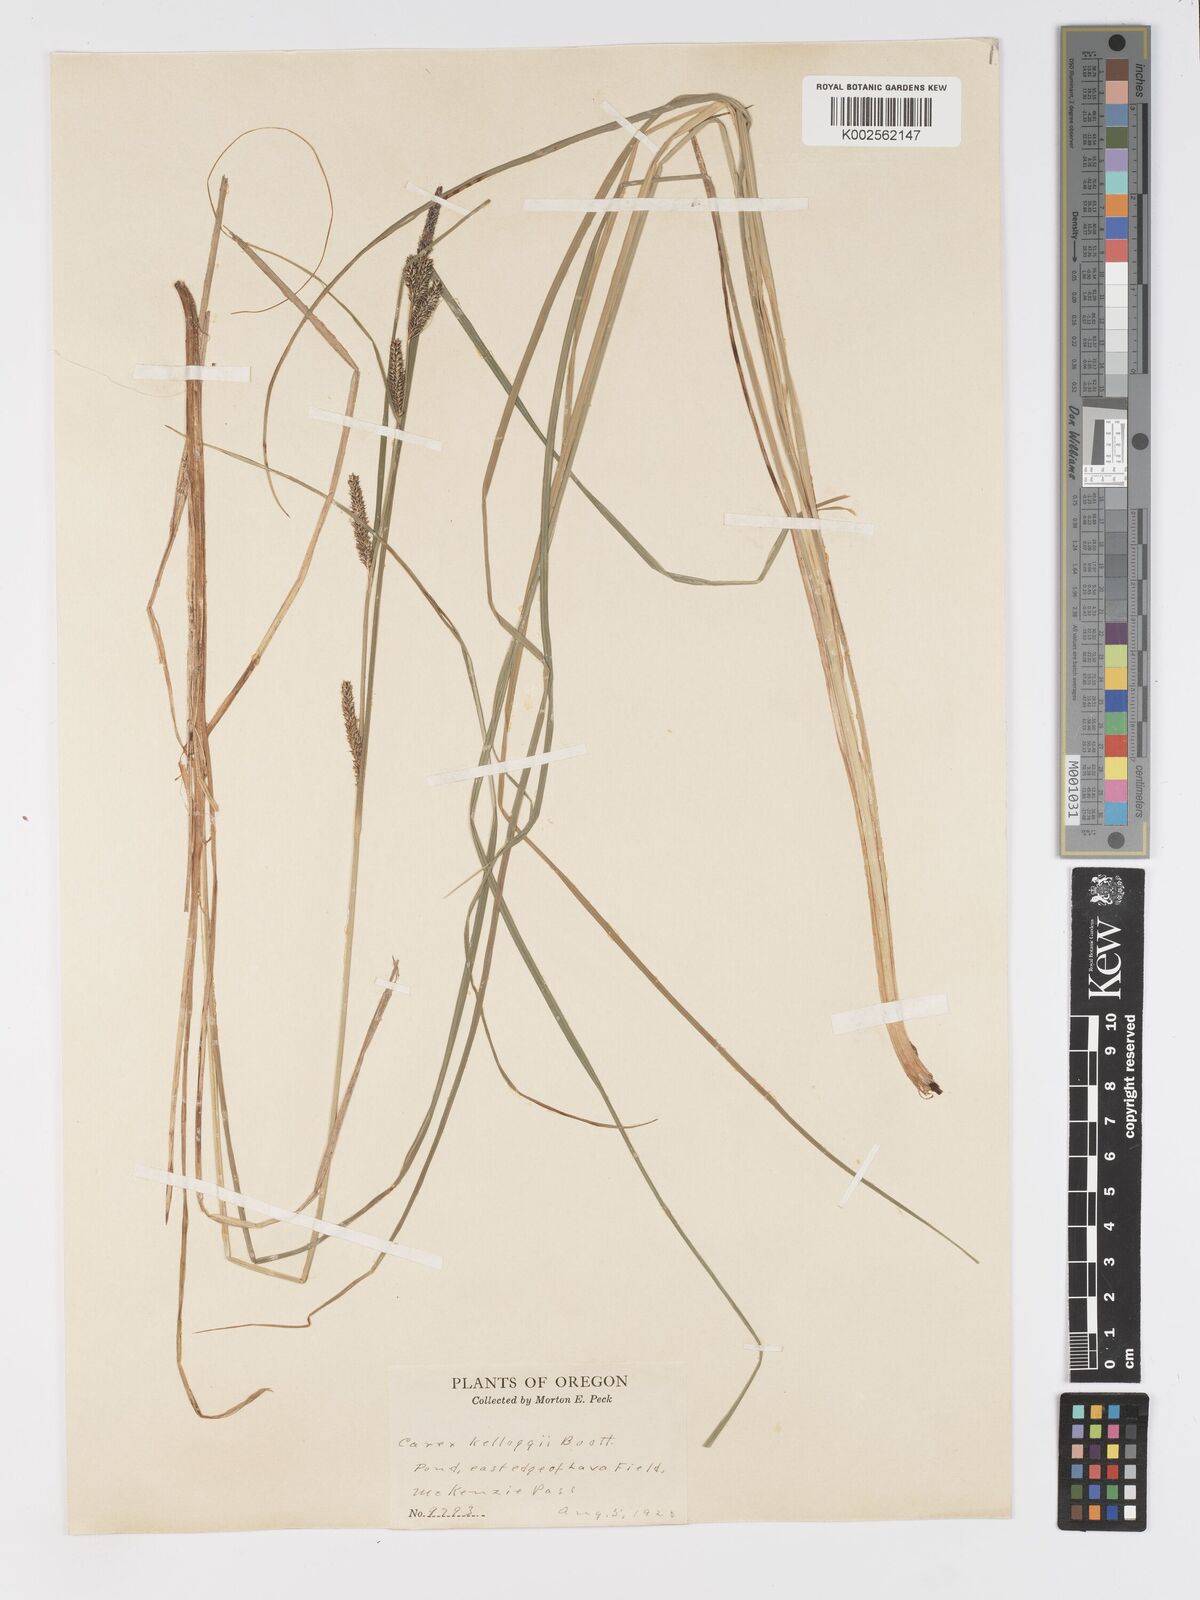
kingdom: Plantae
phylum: Tracheophyta
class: Liliopsida
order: Poales
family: Cyperaceae
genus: Carex
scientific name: Carex kelloggii
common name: Kellogg's sedge
